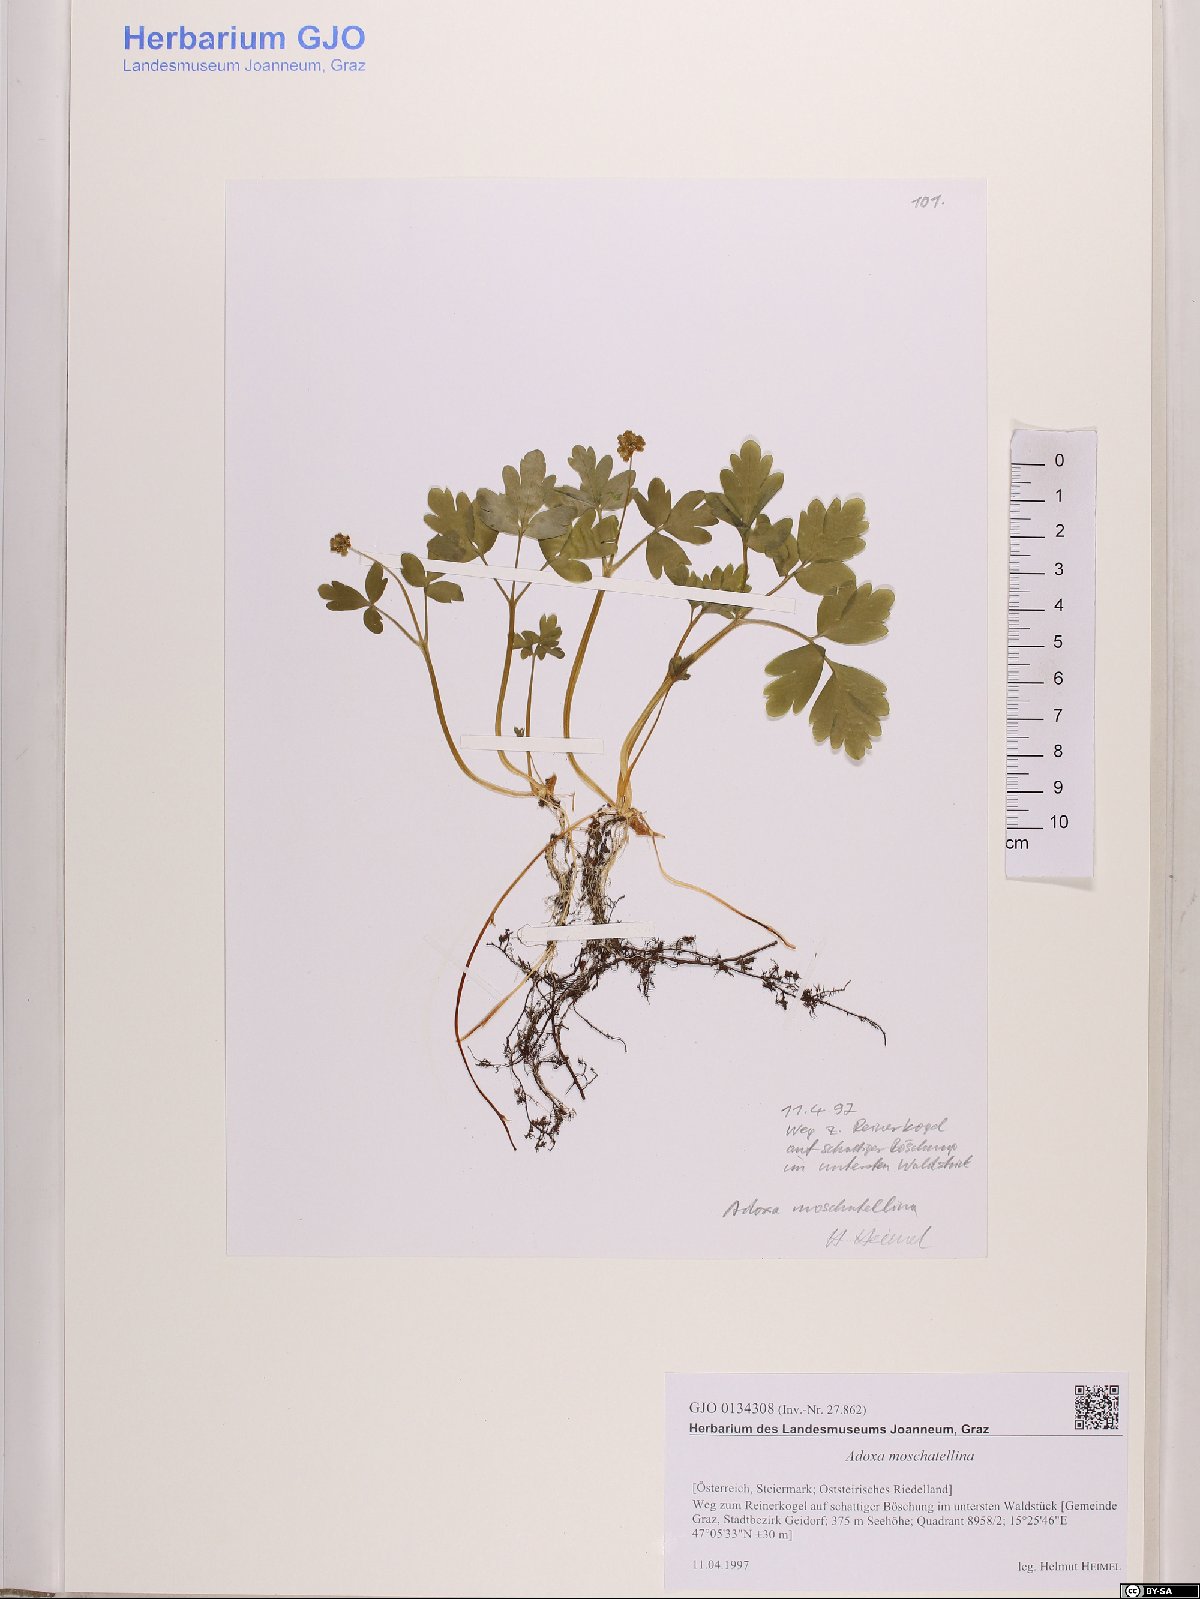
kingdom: Plantae
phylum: Tracheophyta
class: Magnoliopsida
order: Dipsacales
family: Viburnaceae
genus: Adoxa
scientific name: Adoxa moschatellina
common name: Moschatel
